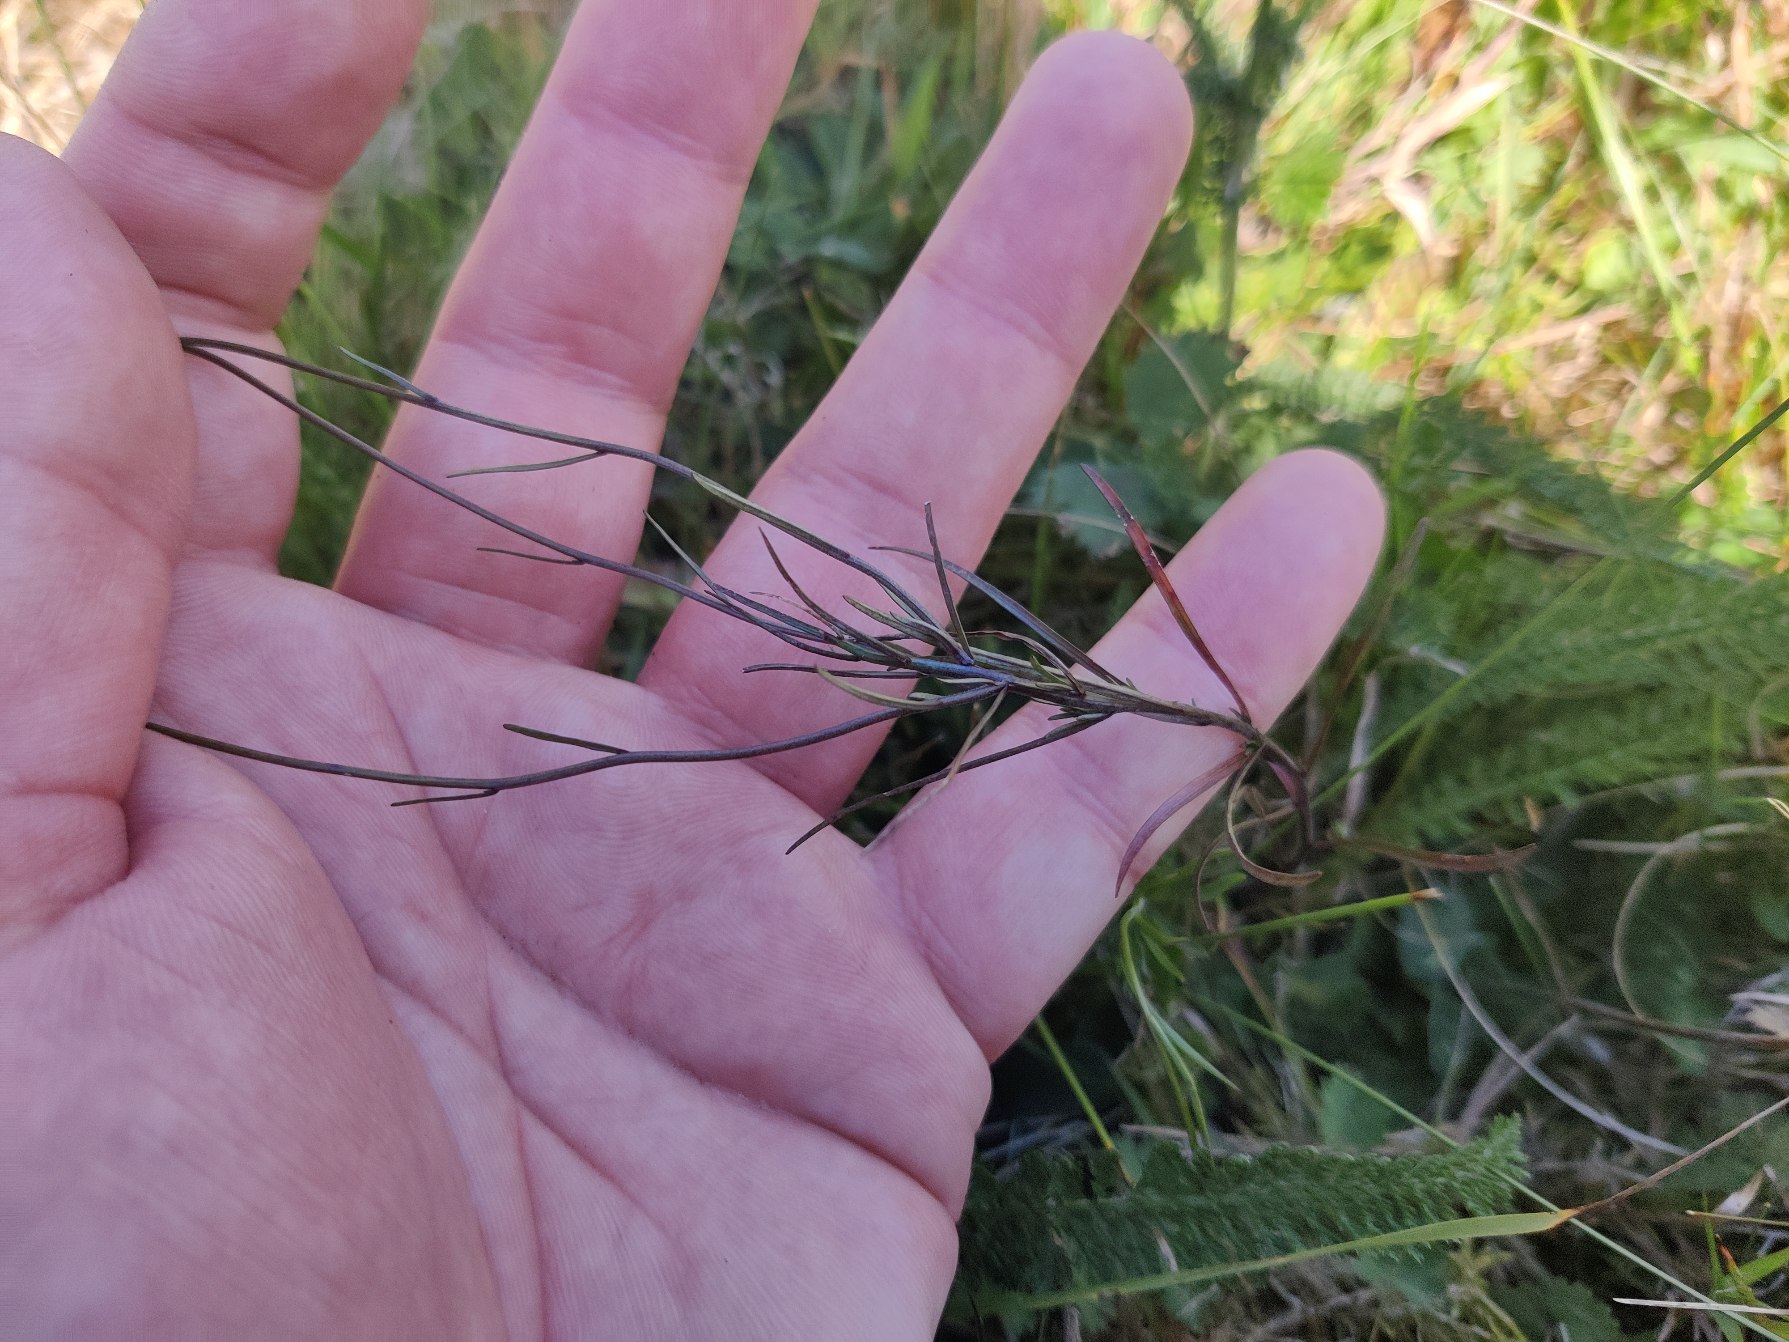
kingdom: Plantae
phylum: Tracheophyta
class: Magnoliopsida
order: Asterales
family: Campanulaceae
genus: Campanula
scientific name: Campanula rotundifolia
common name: Liden klokke
